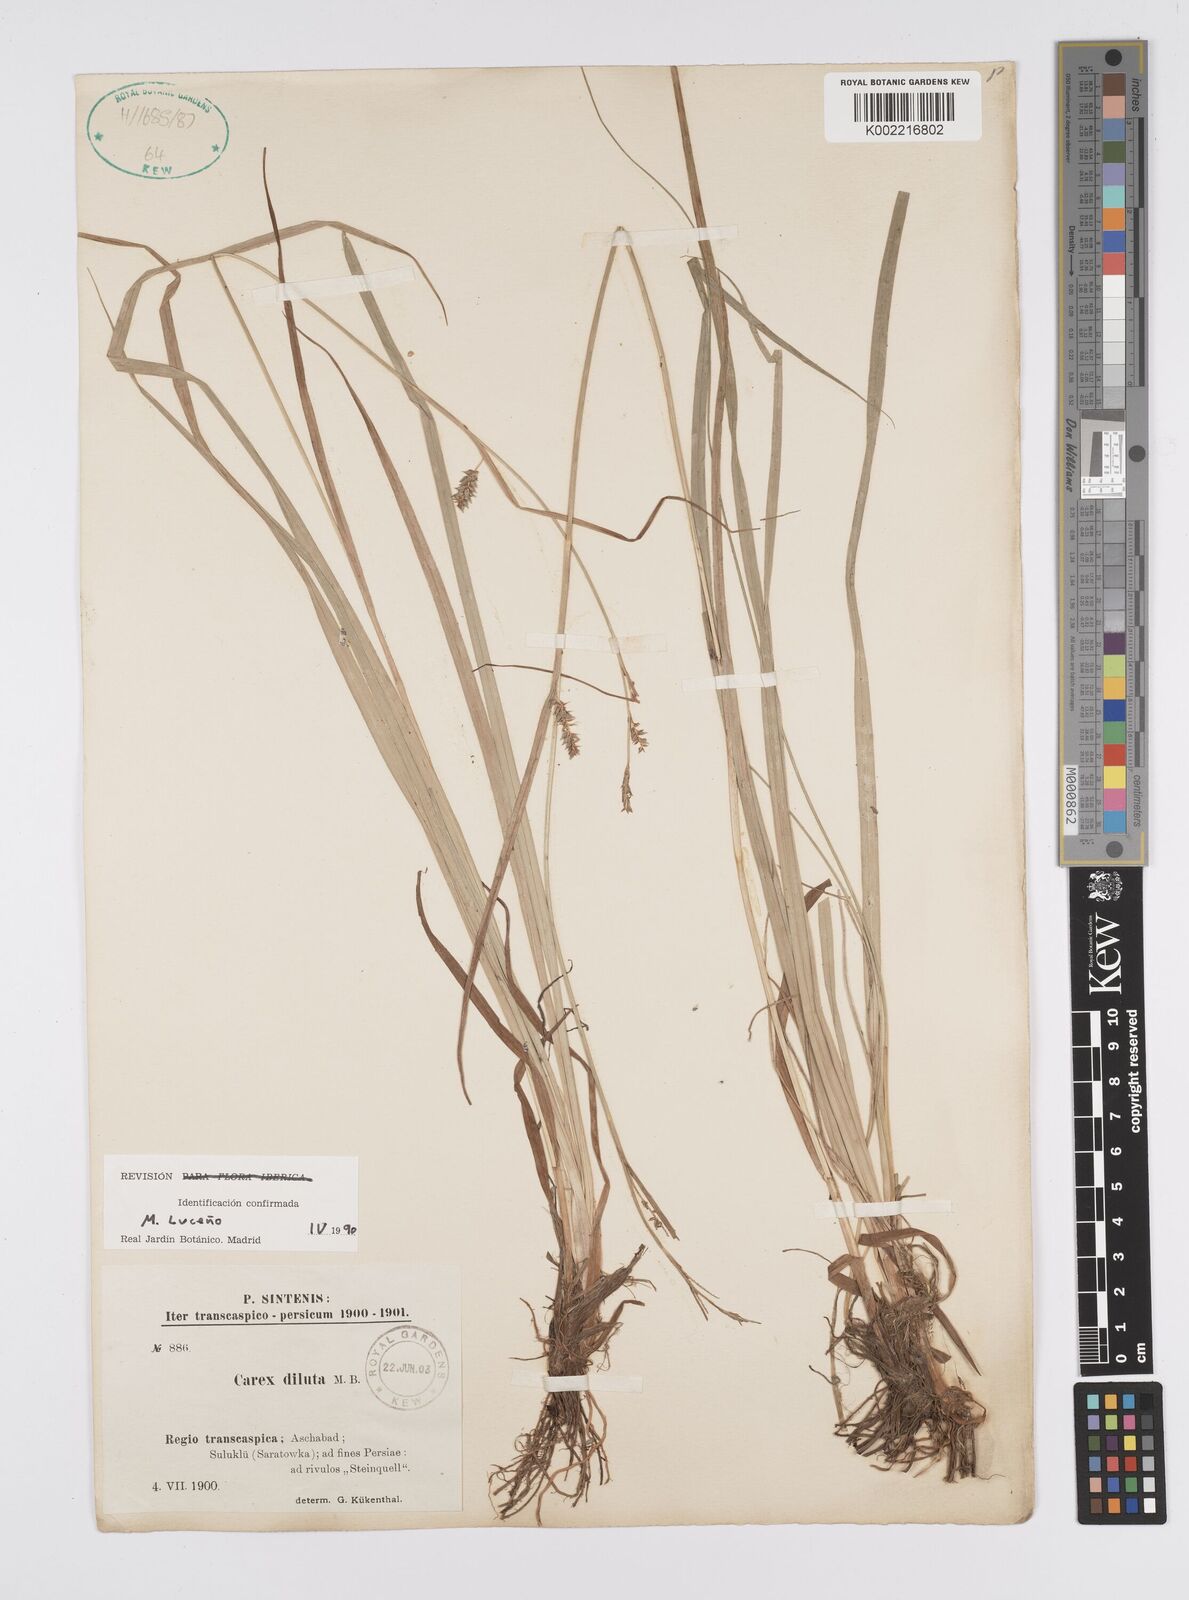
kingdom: Plantae
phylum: Tracheophyta
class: Liliopsida
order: Poales
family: Cyperaceae
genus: Carex
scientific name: Carex diluta
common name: Sedge
